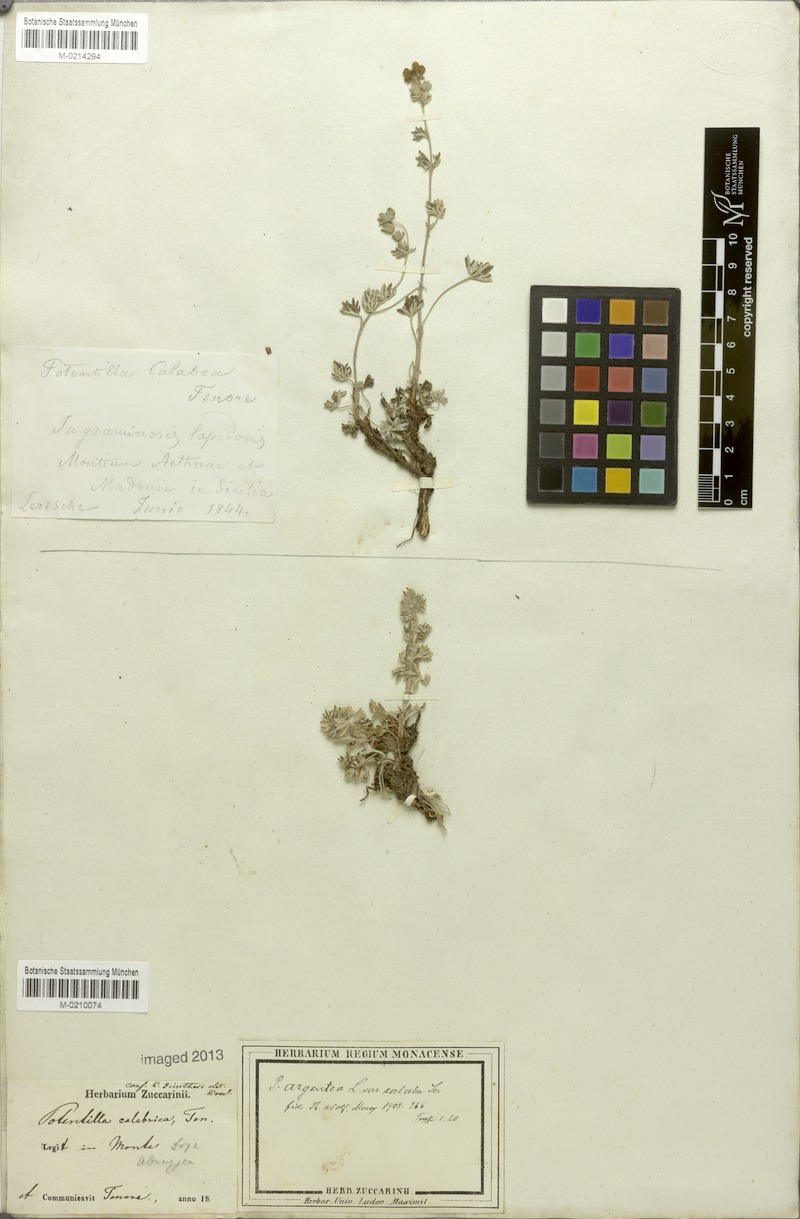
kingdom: Plantae
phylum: Tracheophyta
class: Magnoliopsida
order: Rosales
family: Rosaceae
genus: Potentilla
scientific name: Potentilla calabra
